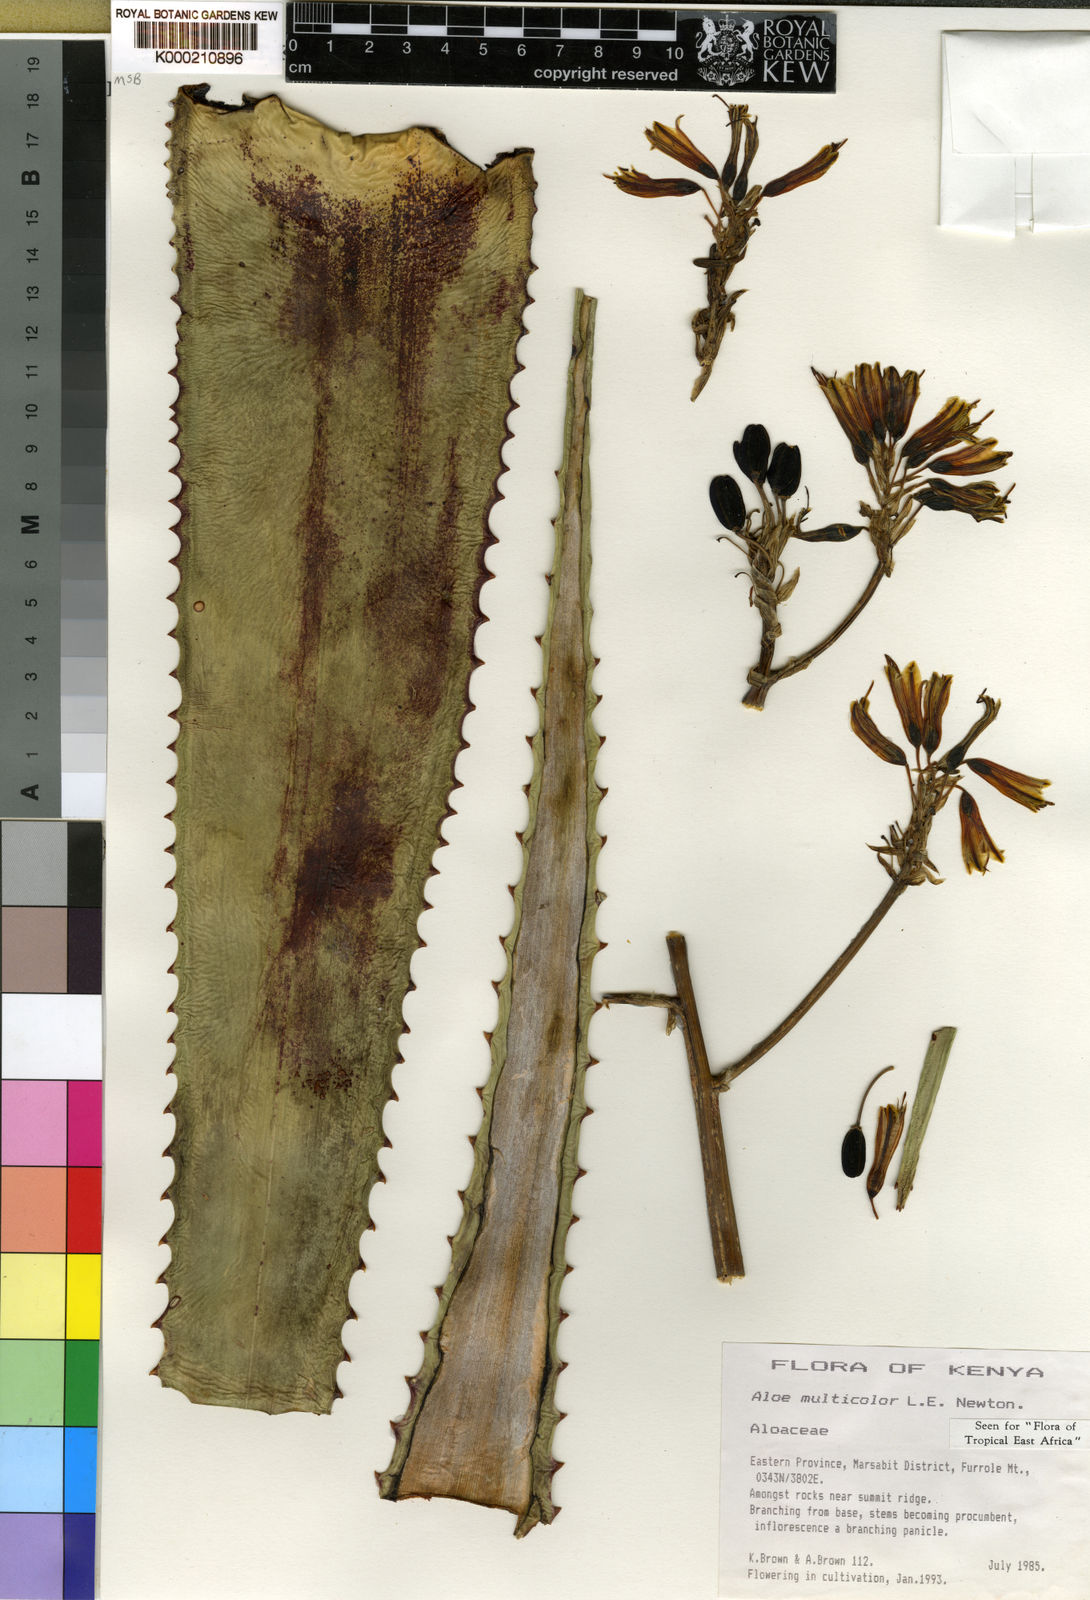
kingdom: Plantae
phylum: Tracheophyta
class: Liliopsida
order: Asparagales
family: Asphodelaceae
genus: Aloe
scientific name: Aloe multicolor
